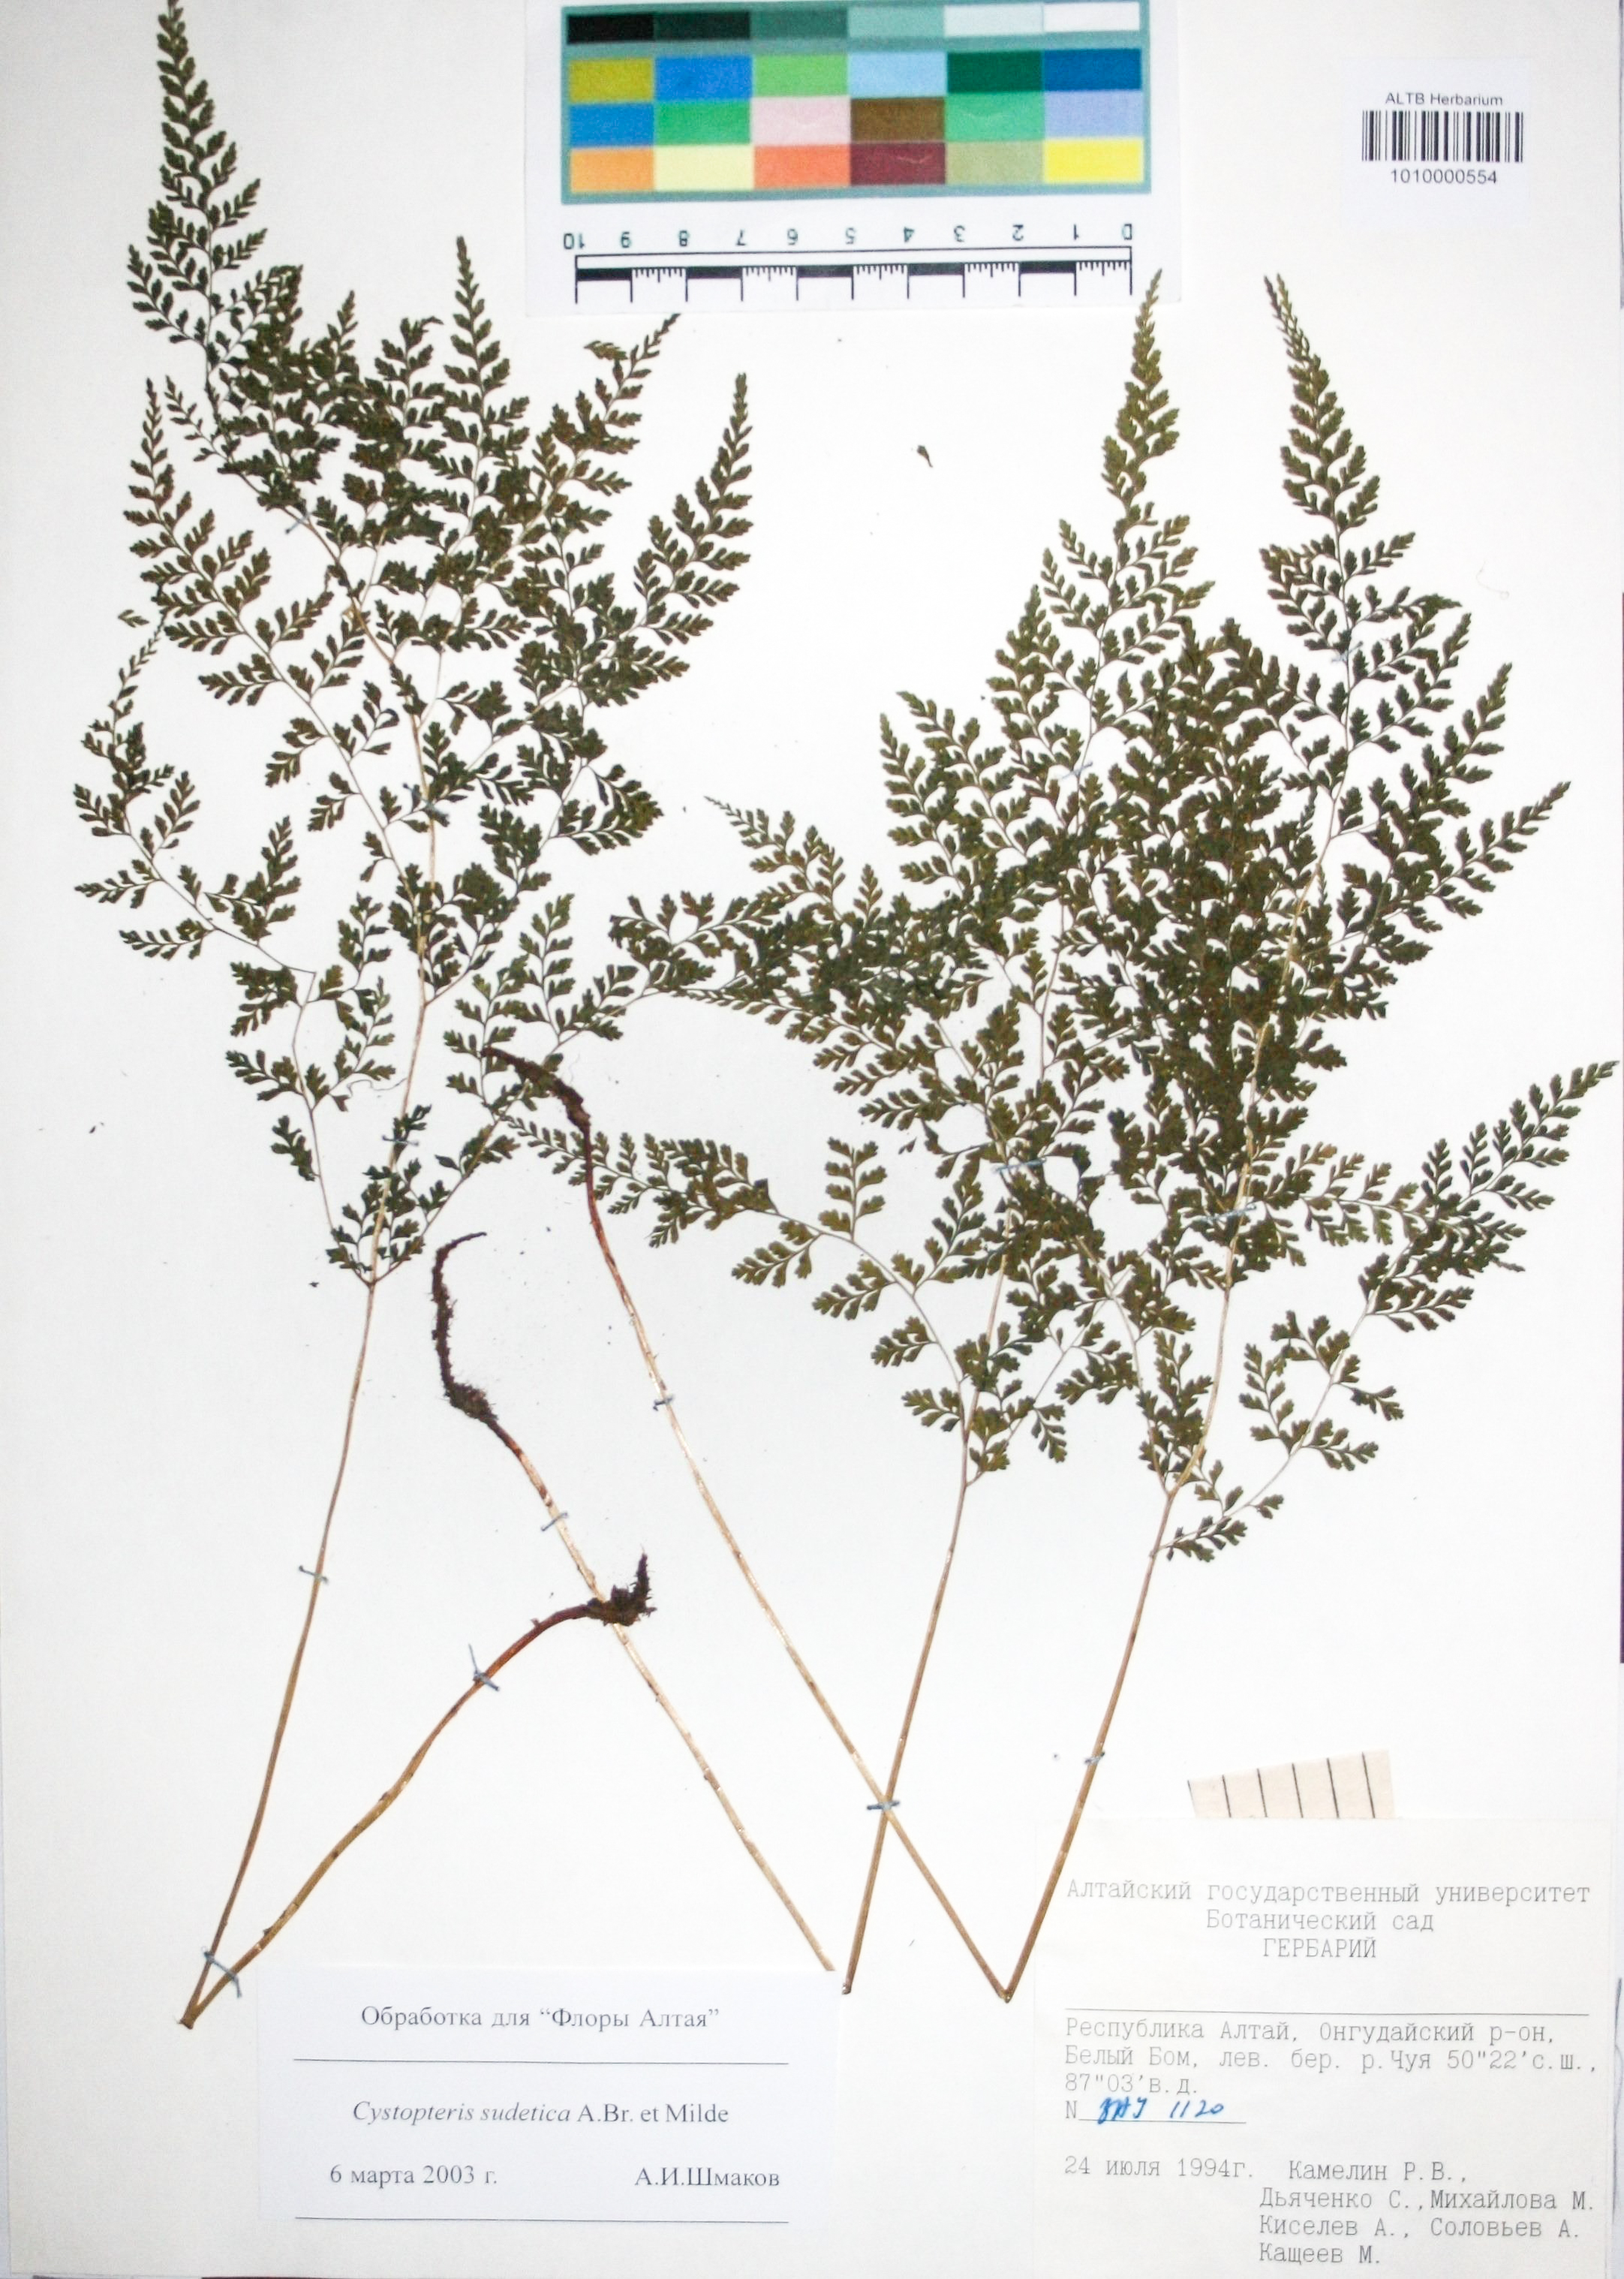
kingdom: Plantae
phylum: Tracheophyta
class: Polypodiopsida
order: Polypodiales
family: Cystopteridaceae
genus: Cystopteris
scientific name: Cystopteris sudetica
